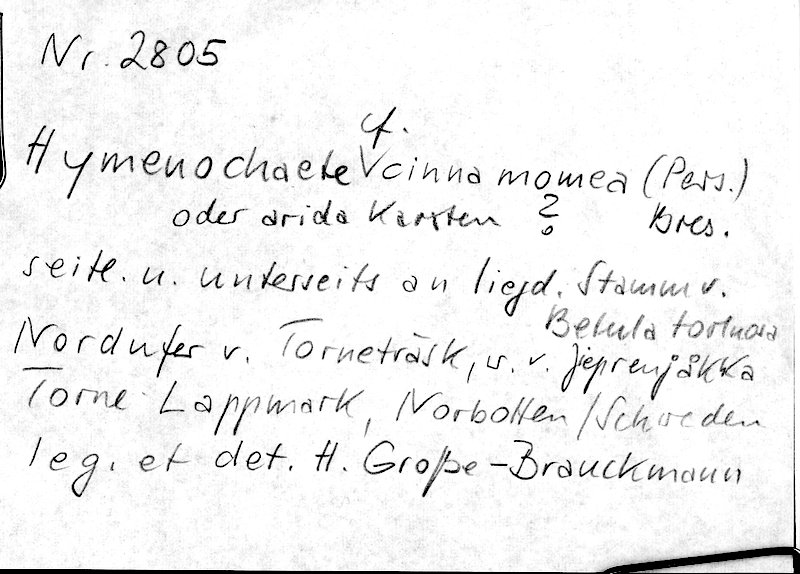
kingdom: Fungi
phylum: Basidiomycota
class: Agaricomycetes
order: Hymenochaetales
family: Hymenochaetaceae
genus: Hymenochaete
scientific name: Hymenochaete cinnamomea
